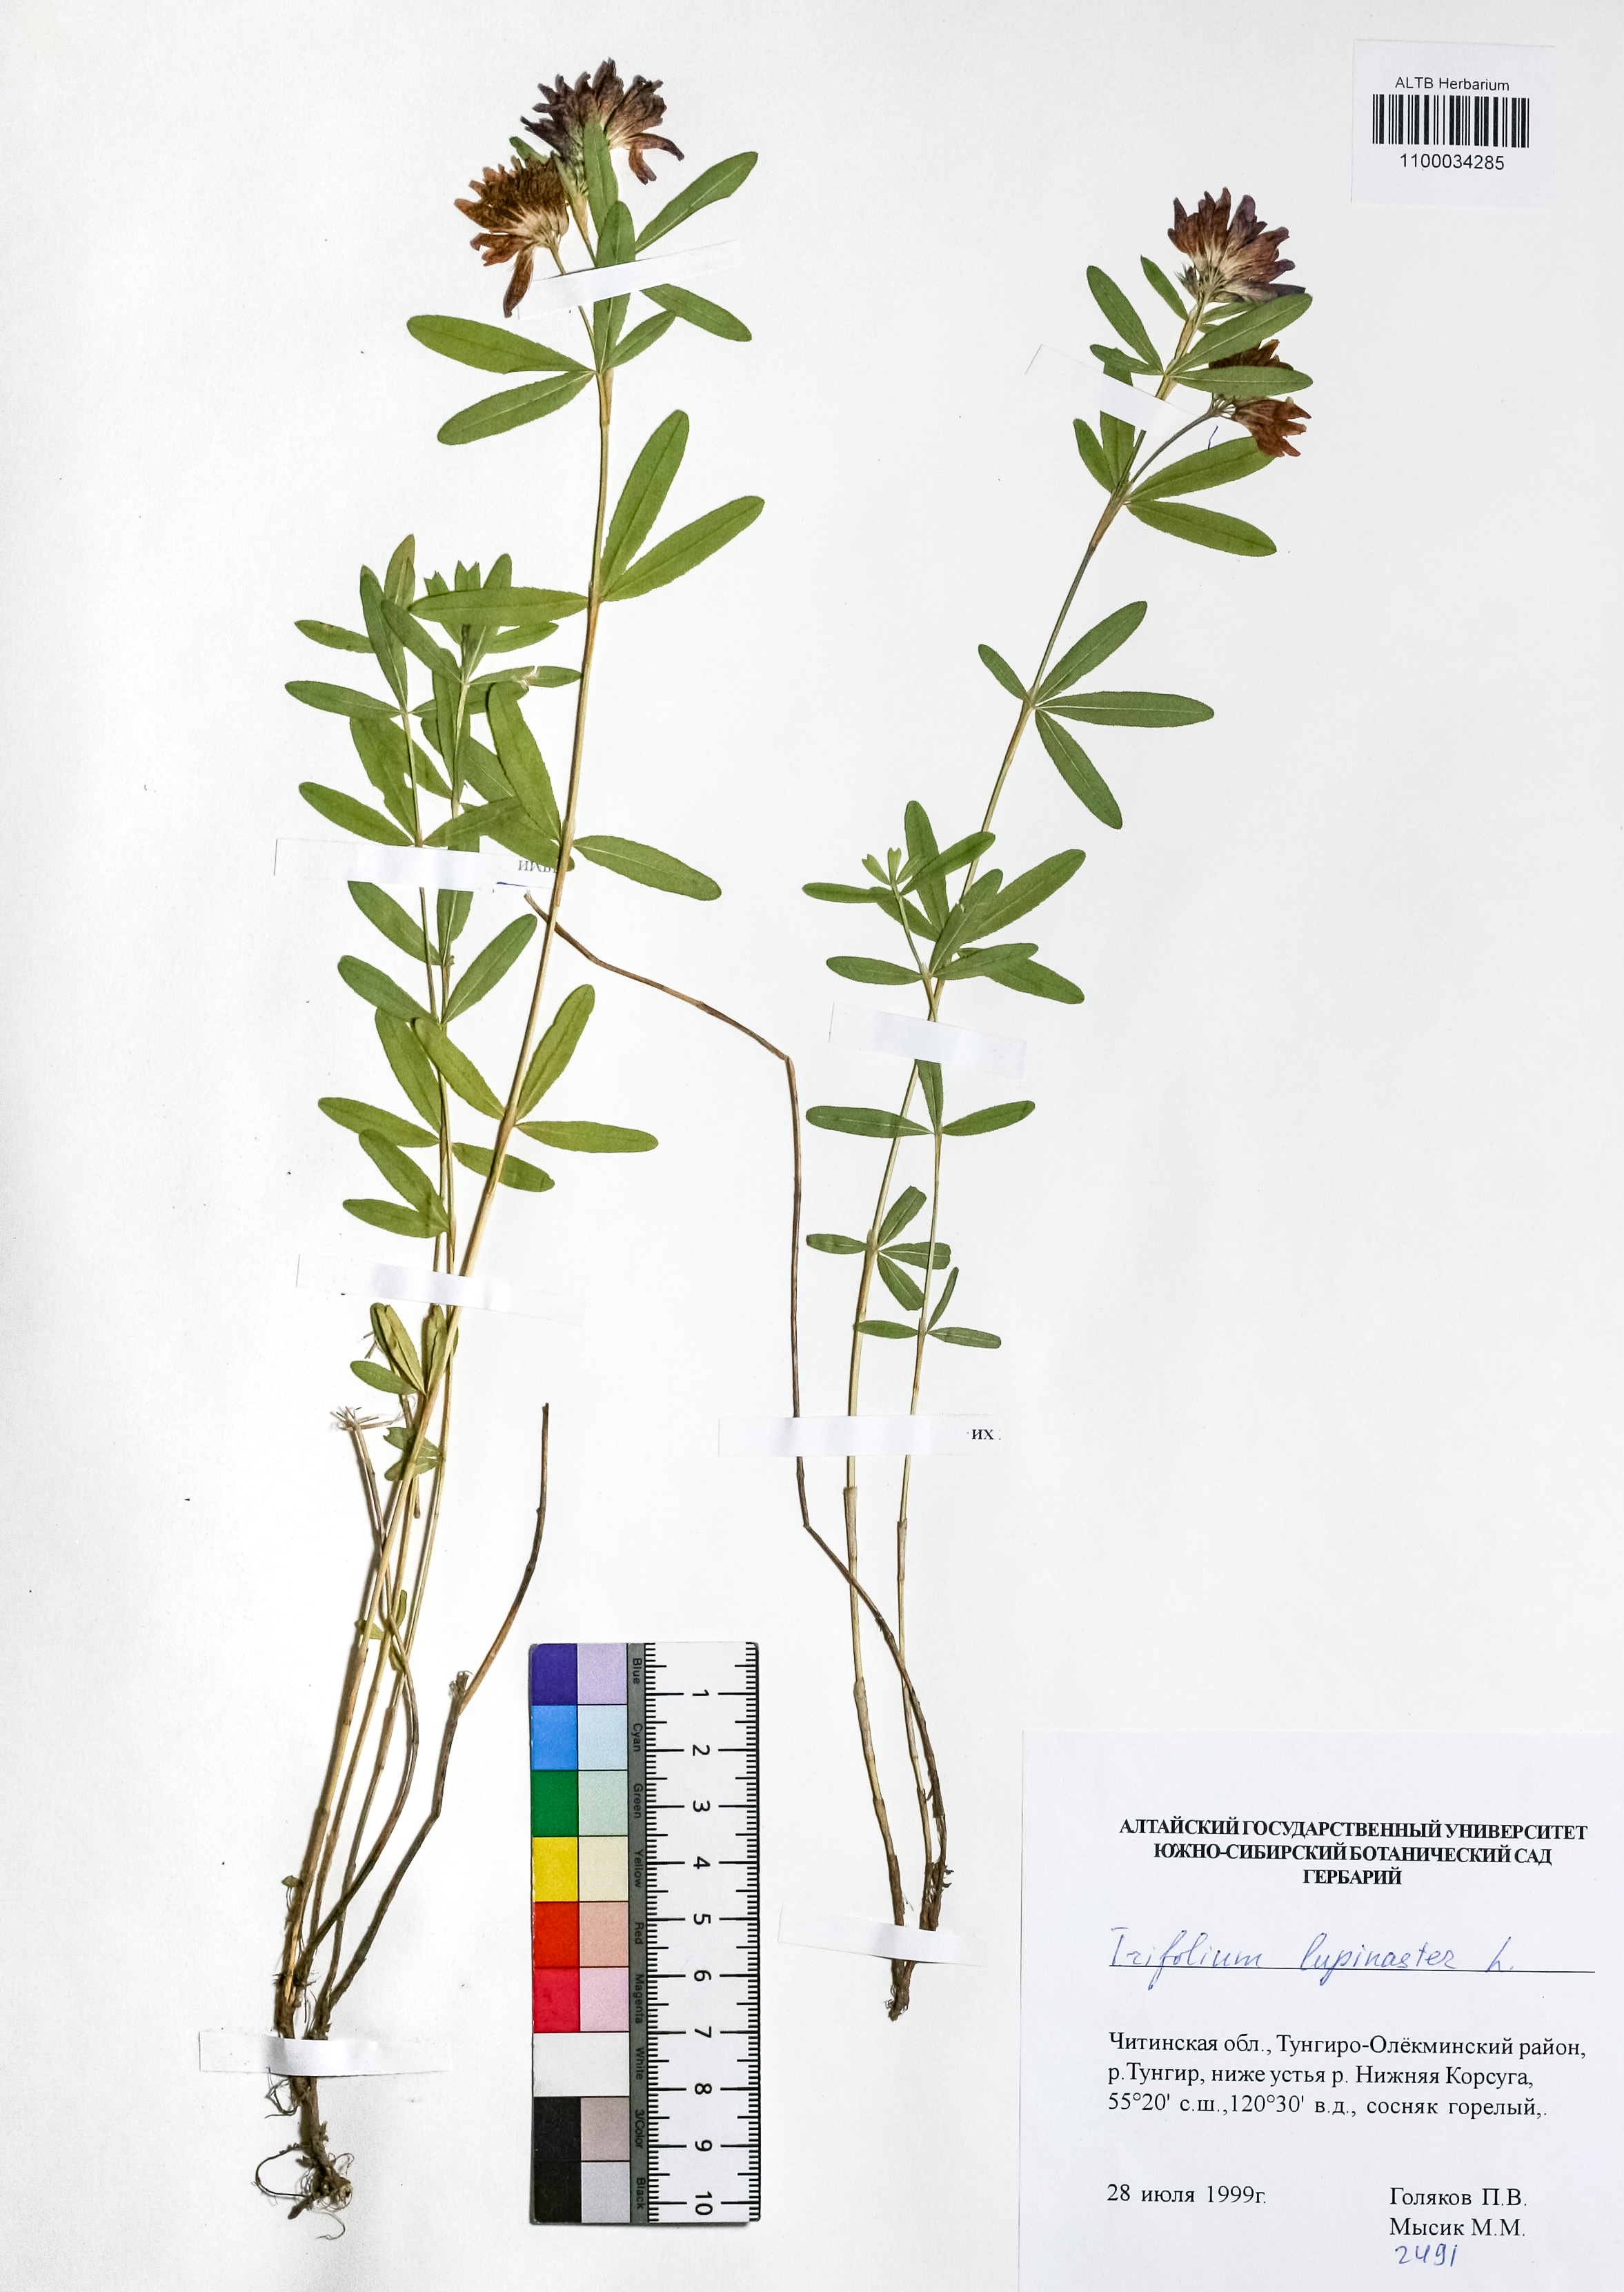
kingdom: Plantae
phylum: Tracheophyta
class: Magnoliopsida
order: Fabales
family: Fabaceae
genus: Trifolium
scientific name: Trifolium lupinaster
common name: Lupine clover
